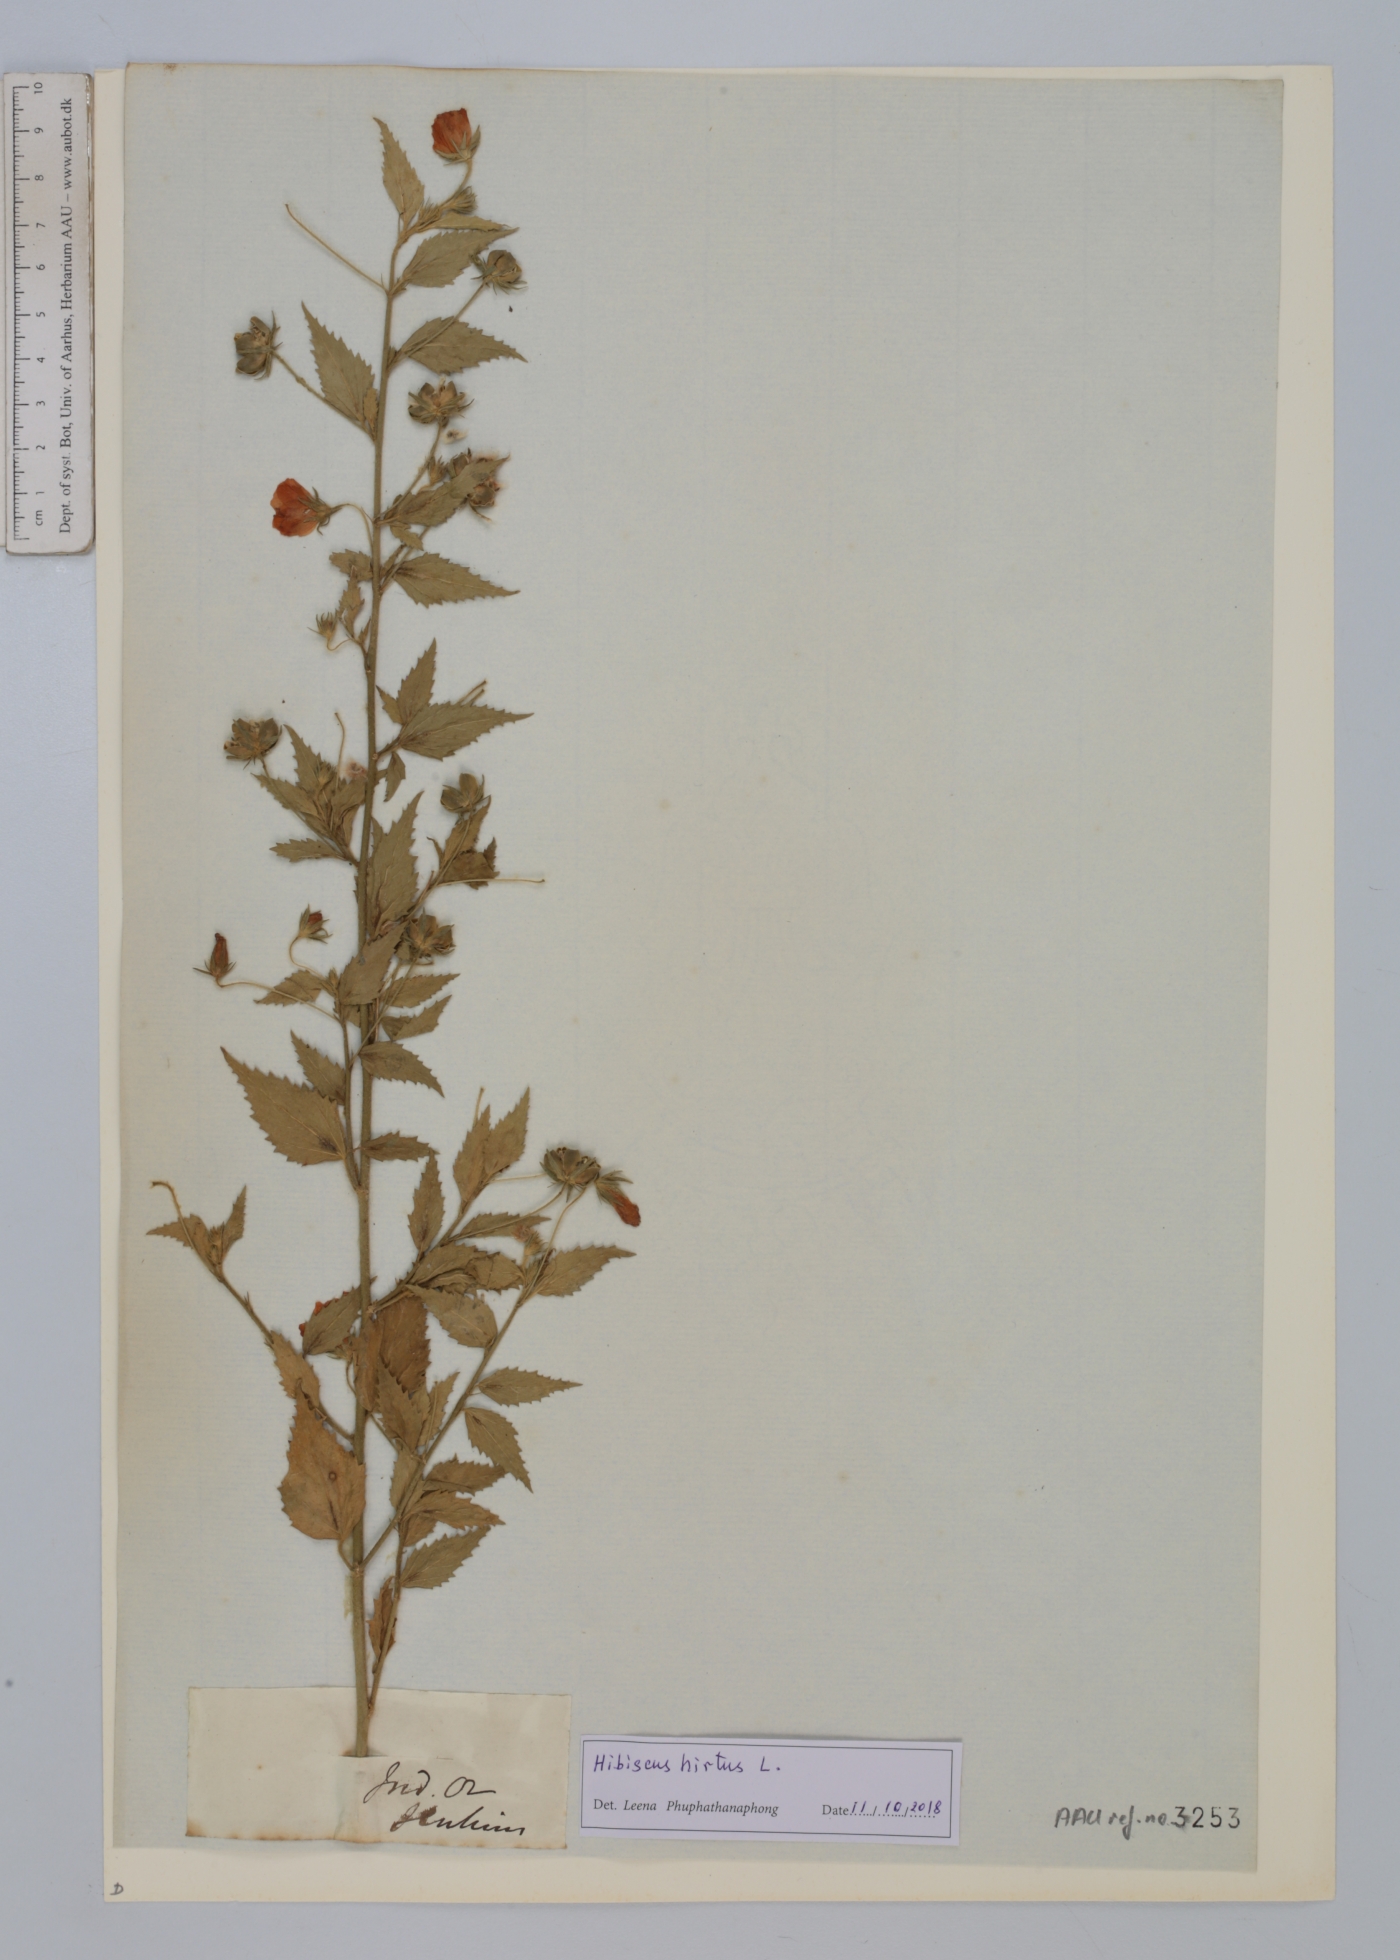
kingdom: Plantae
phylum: Tracheophyta
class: Magnoliopsida
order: Malvales
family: Malvaceae
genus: Hibiscus
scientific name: Hibiscus hirtus
